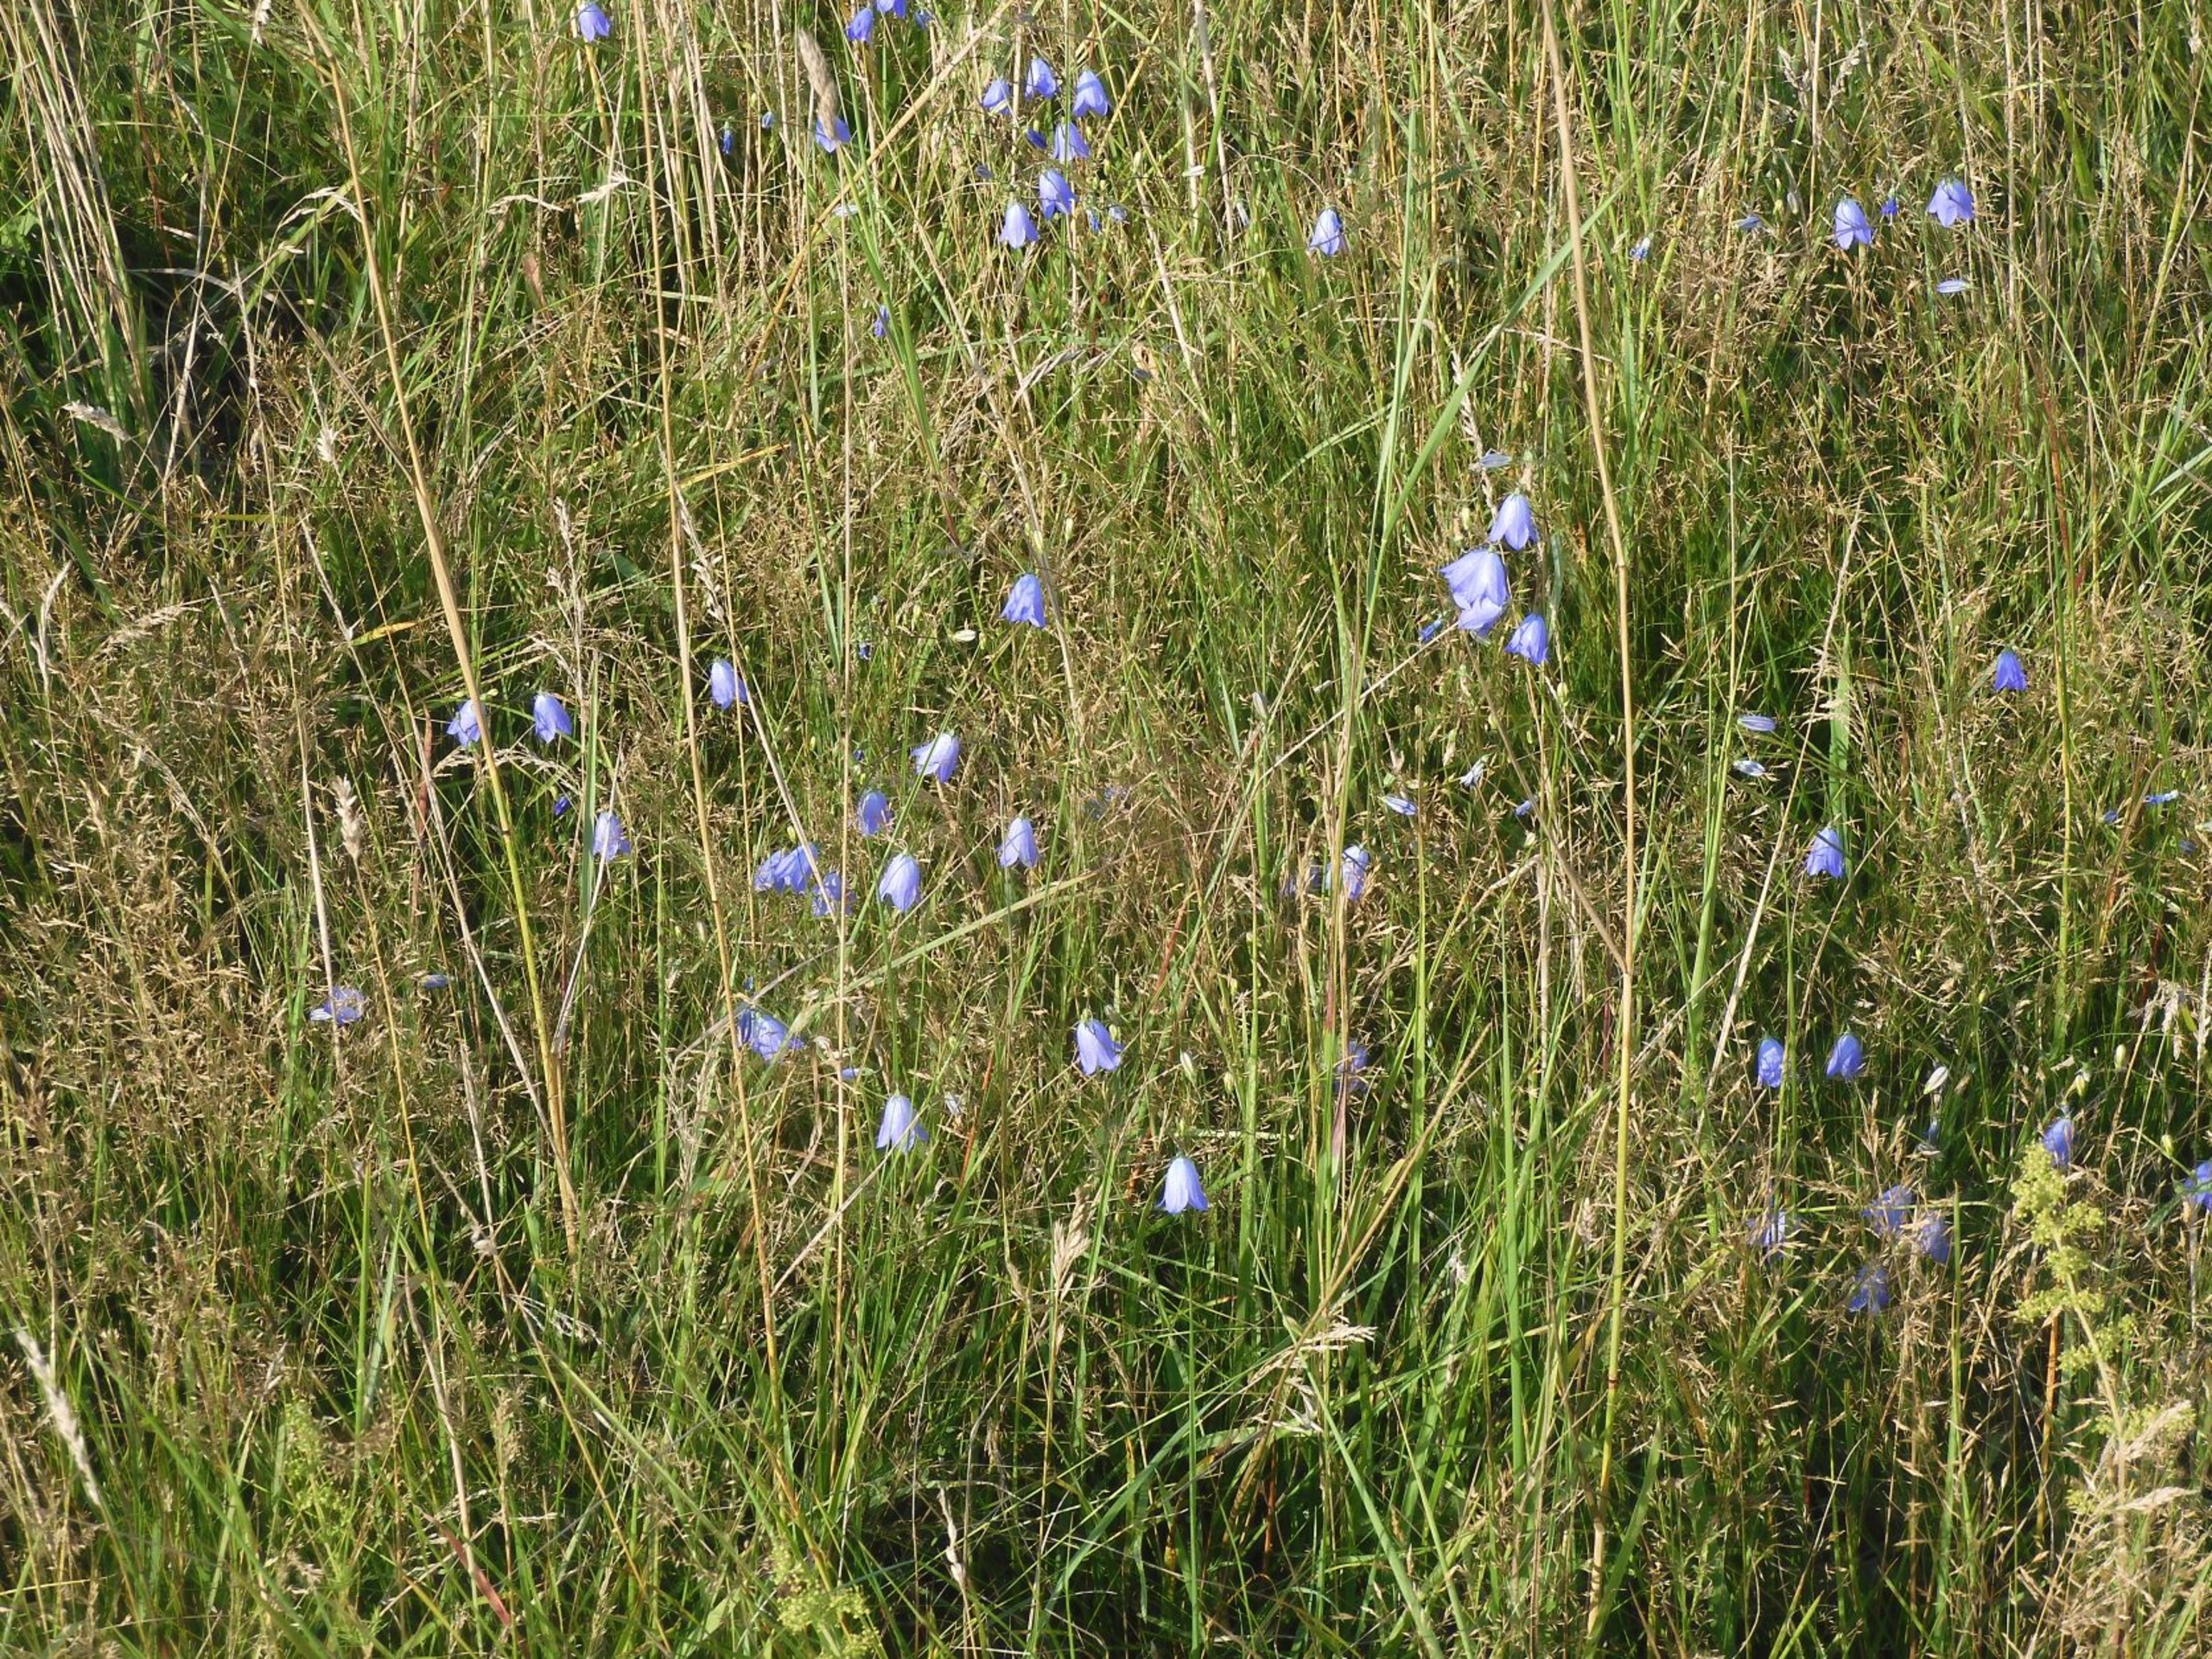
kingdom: Plantae
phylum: Tracheophyta
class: Magnoliopsida
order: Asterales
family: Campanulaceae
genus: Campanula
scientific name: Campanula rotundifolia
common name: Liden klokke
